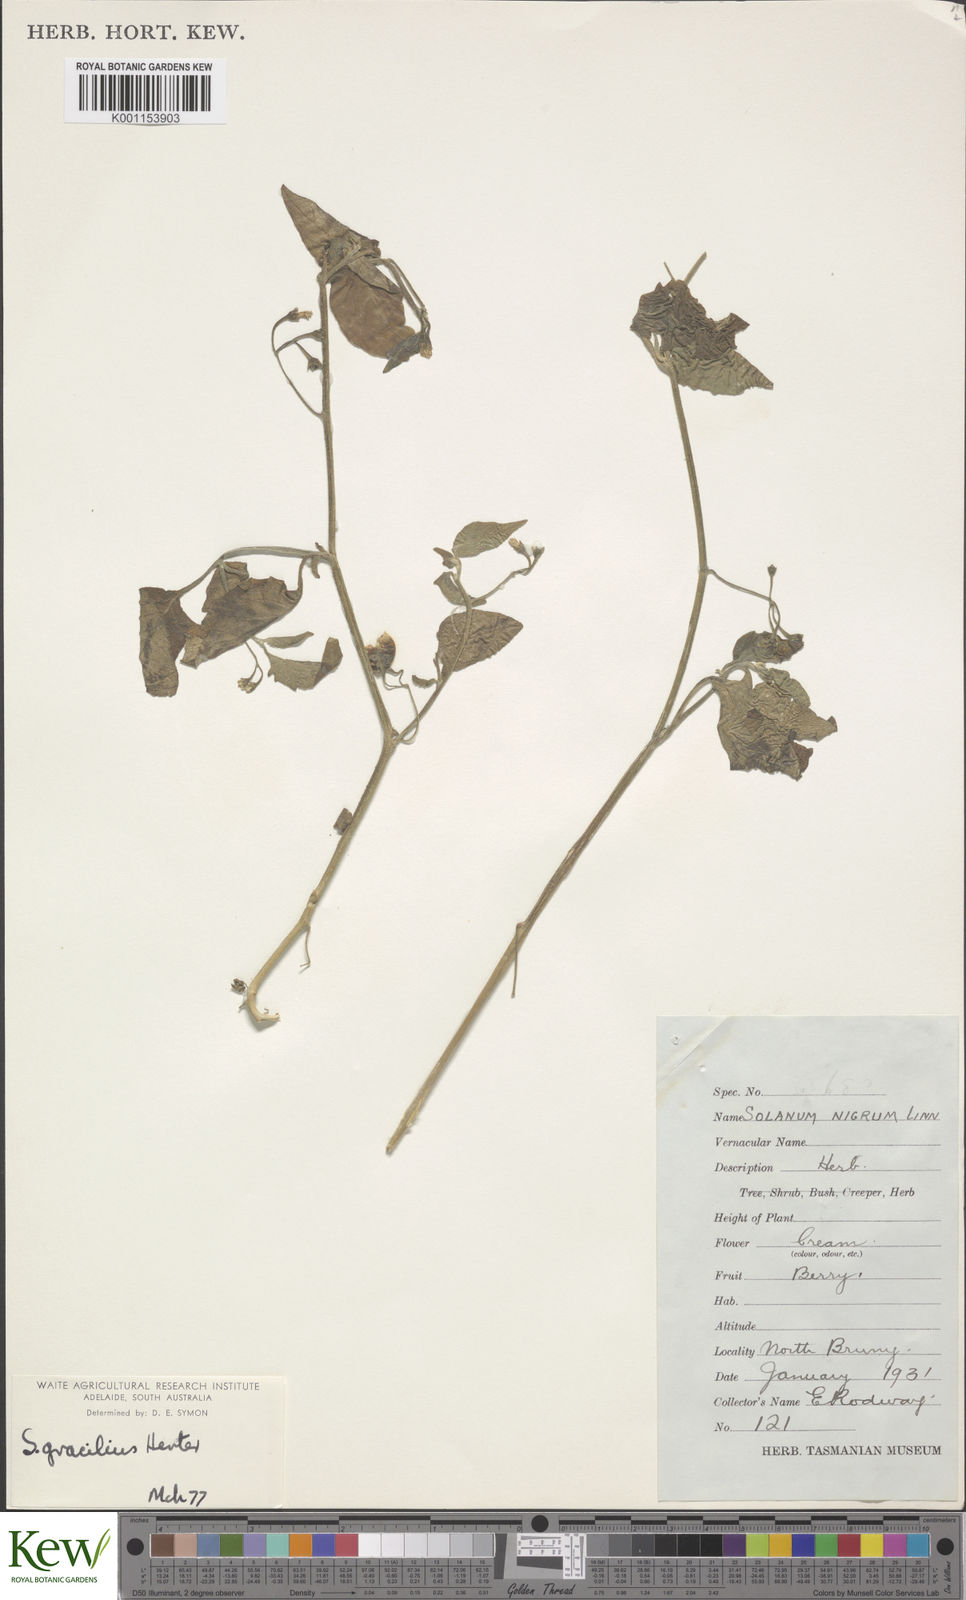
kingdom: Plantae
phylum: Tracheophyta
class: Magnoliopsida
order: Solanales
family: Solanaceae
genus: Solanum
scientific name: Solanum chenopodioides
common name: Tall nightshade
